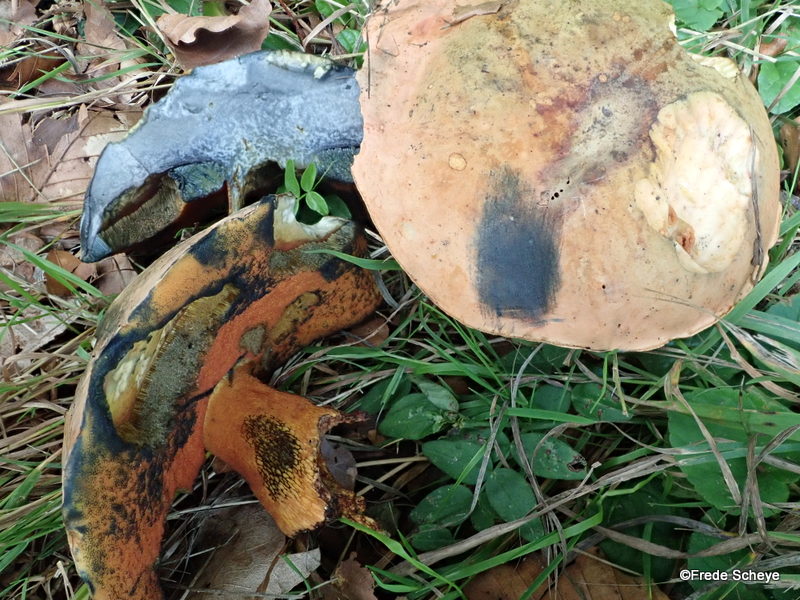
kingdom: Fungi
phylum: Basidiomycota
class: Agaricomycetes
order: Boletales
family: Boletaceae
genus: Suillellus
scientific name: Suillellus luridus
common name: netstokket indigorørhat
